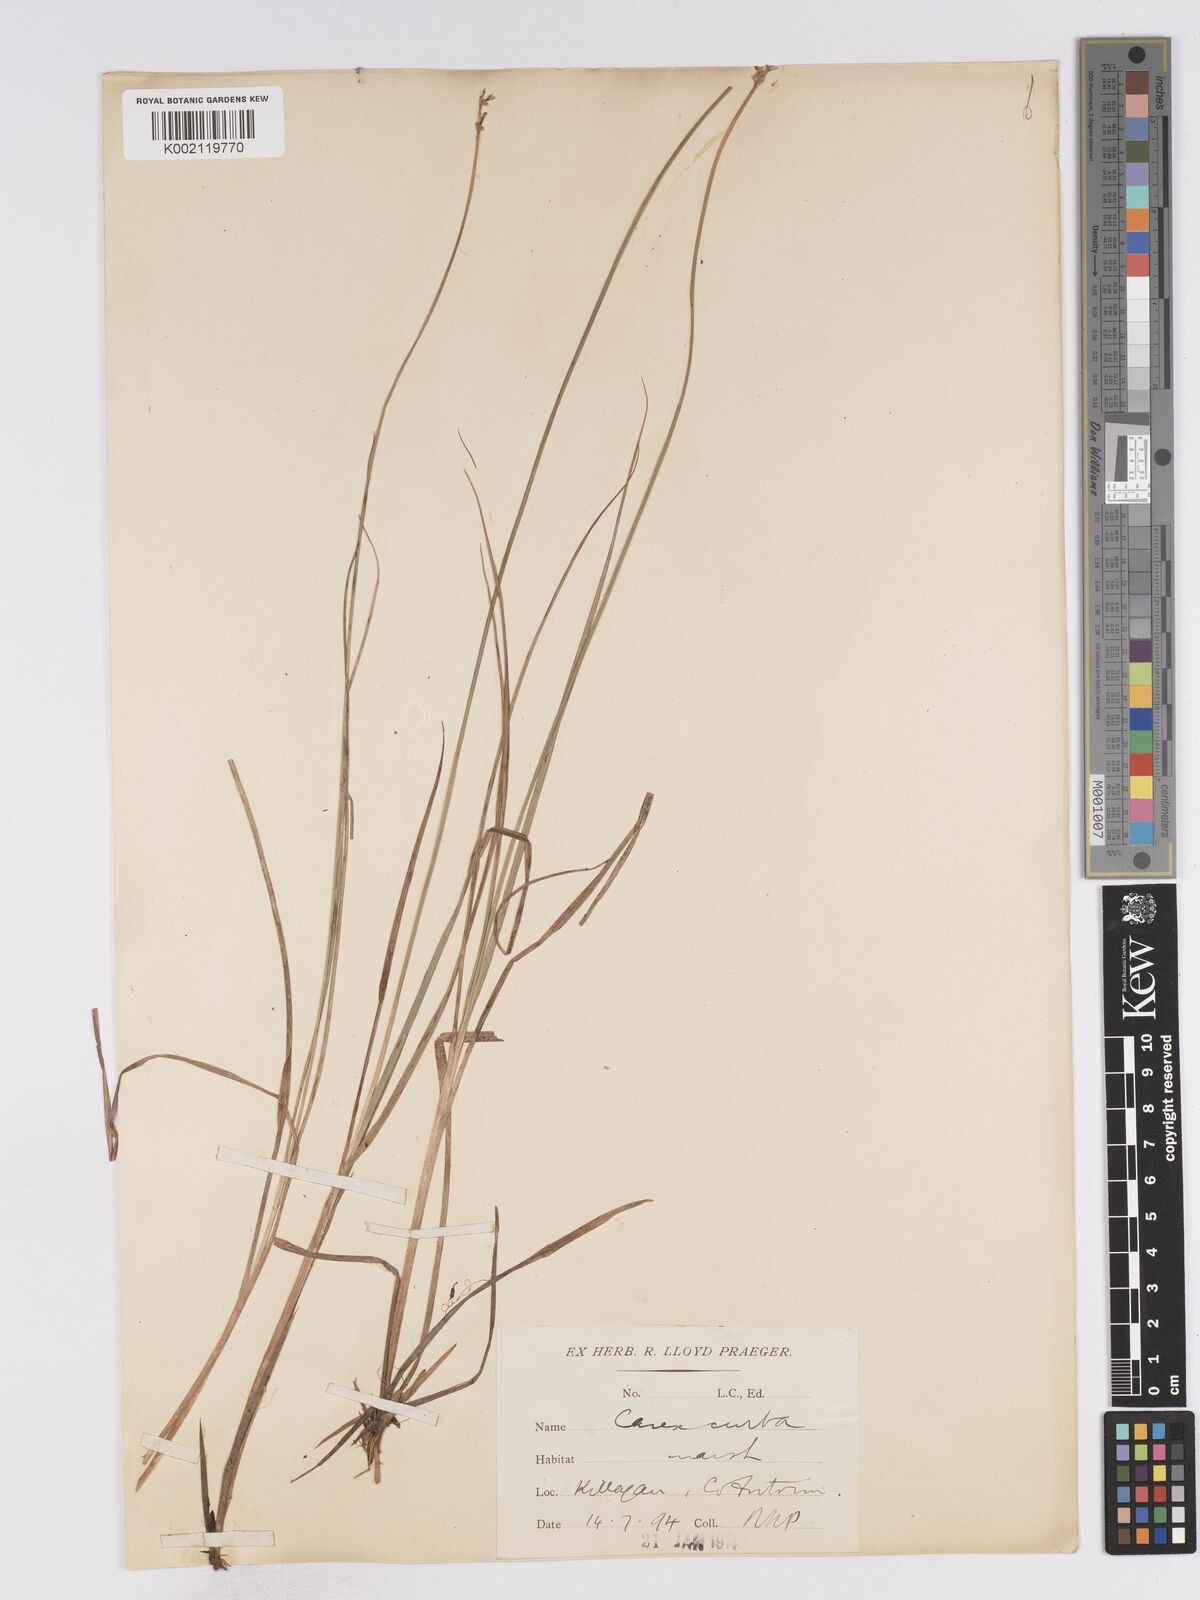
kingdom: Plantae
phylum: Tracheophyta
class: Liliopsida
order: Poales
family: Cyperaceae
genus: Carex
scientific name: Carex curta
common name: White sedge
